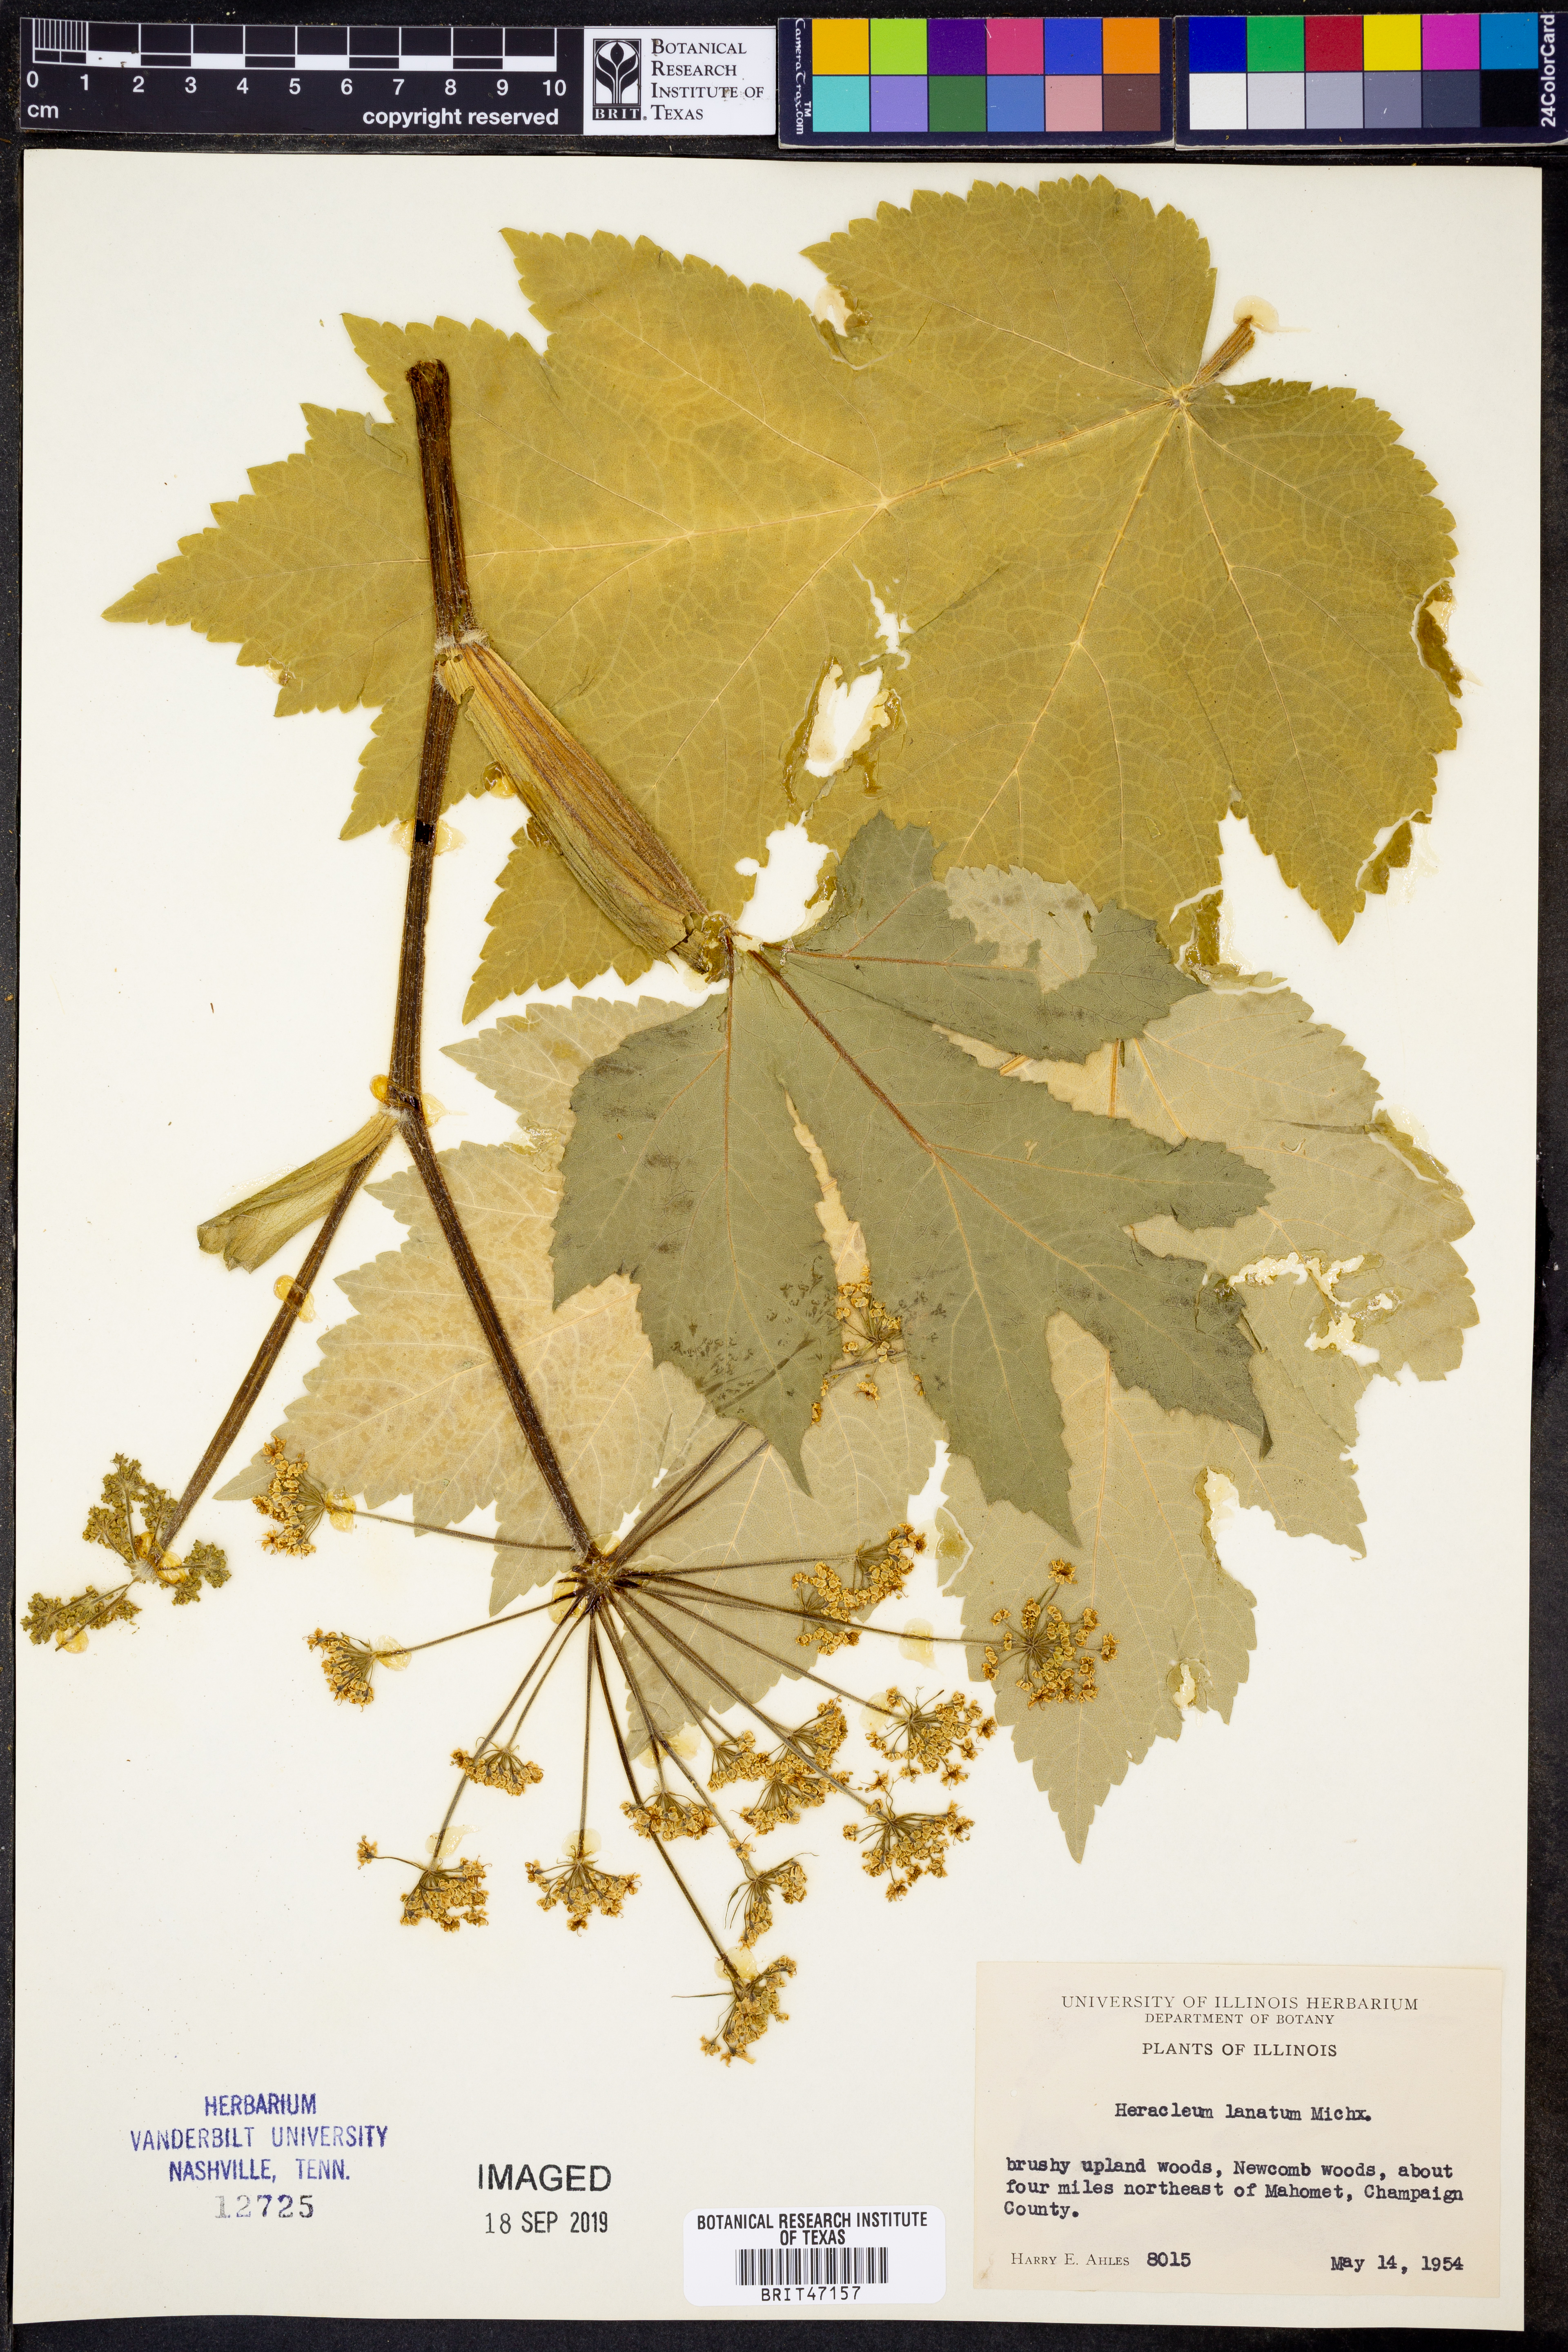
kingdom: Plantae
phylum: Tracheophyta
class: Magnoliopsida
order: Apiales
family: Apiaceae
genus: Heracleum
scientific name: Heracleum maximum
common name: American cow parsnip
